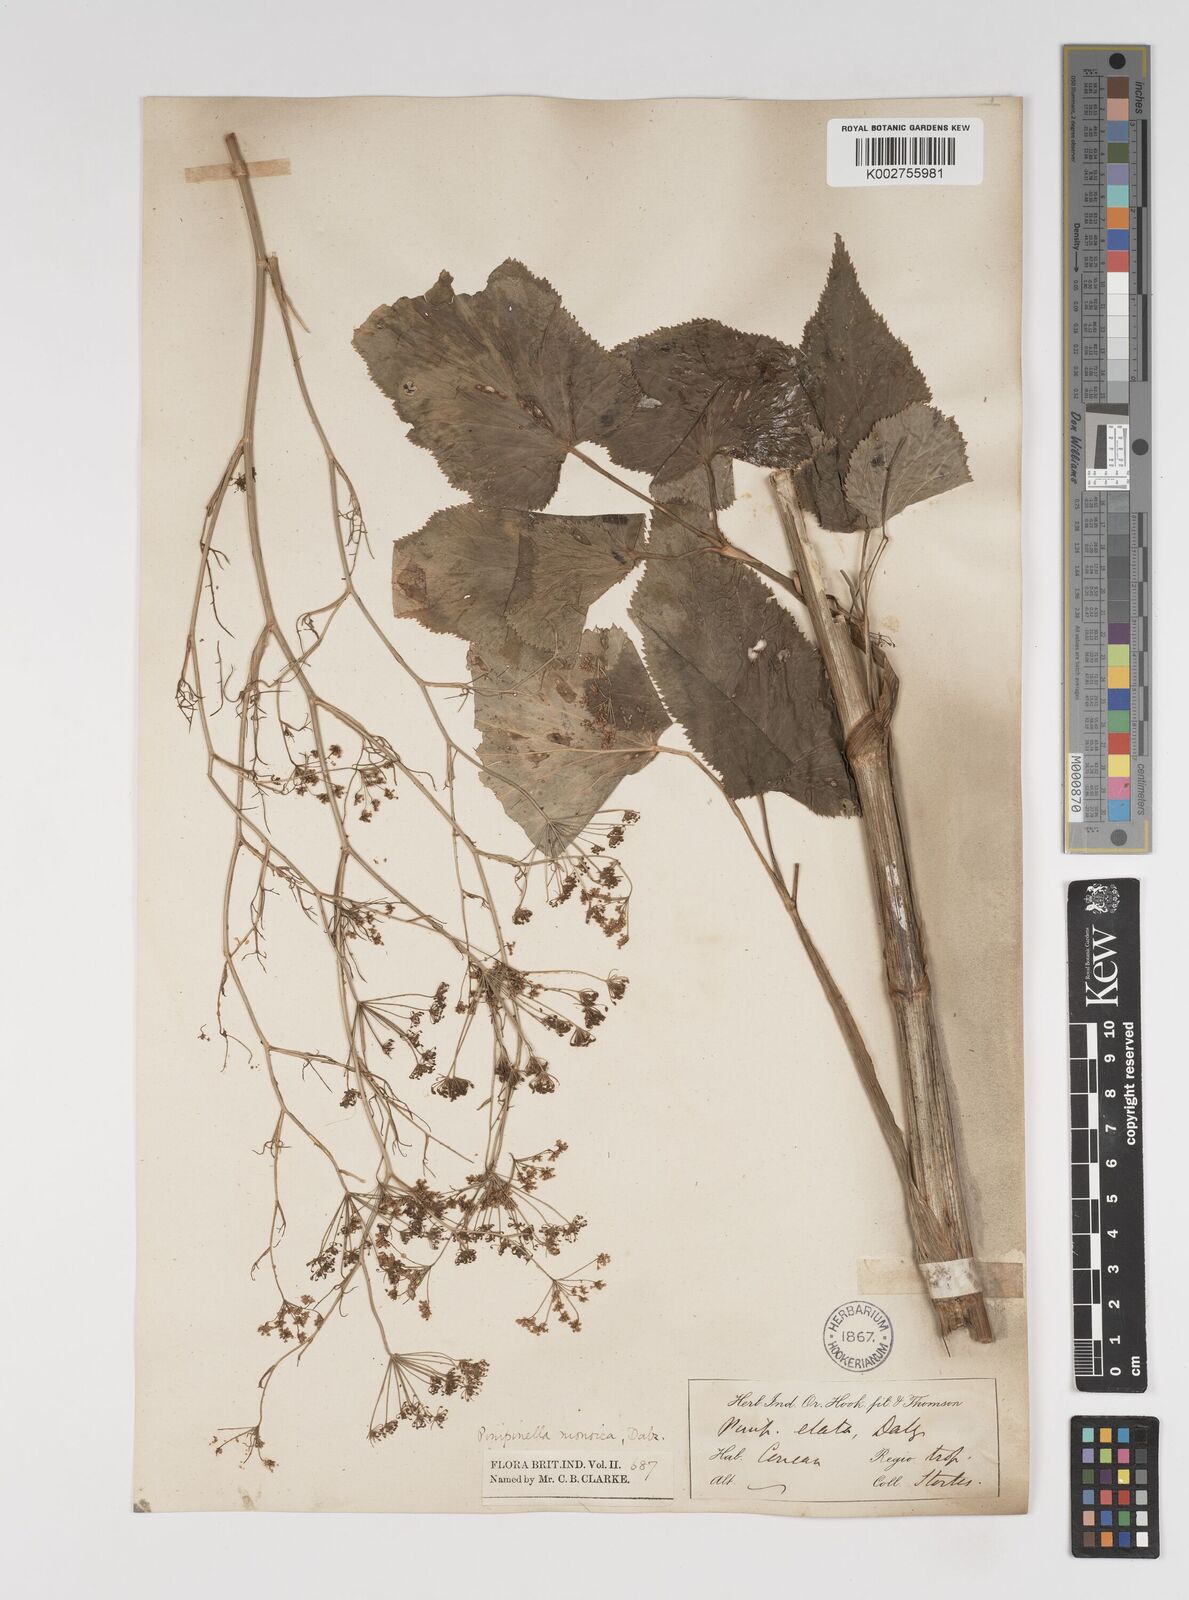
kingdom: Plantae
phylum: Tracheophyta
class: Magnoliopsida
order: Apiales
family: Apiaceae
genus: Pimpinella
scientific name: Pimpinella wallichiana
